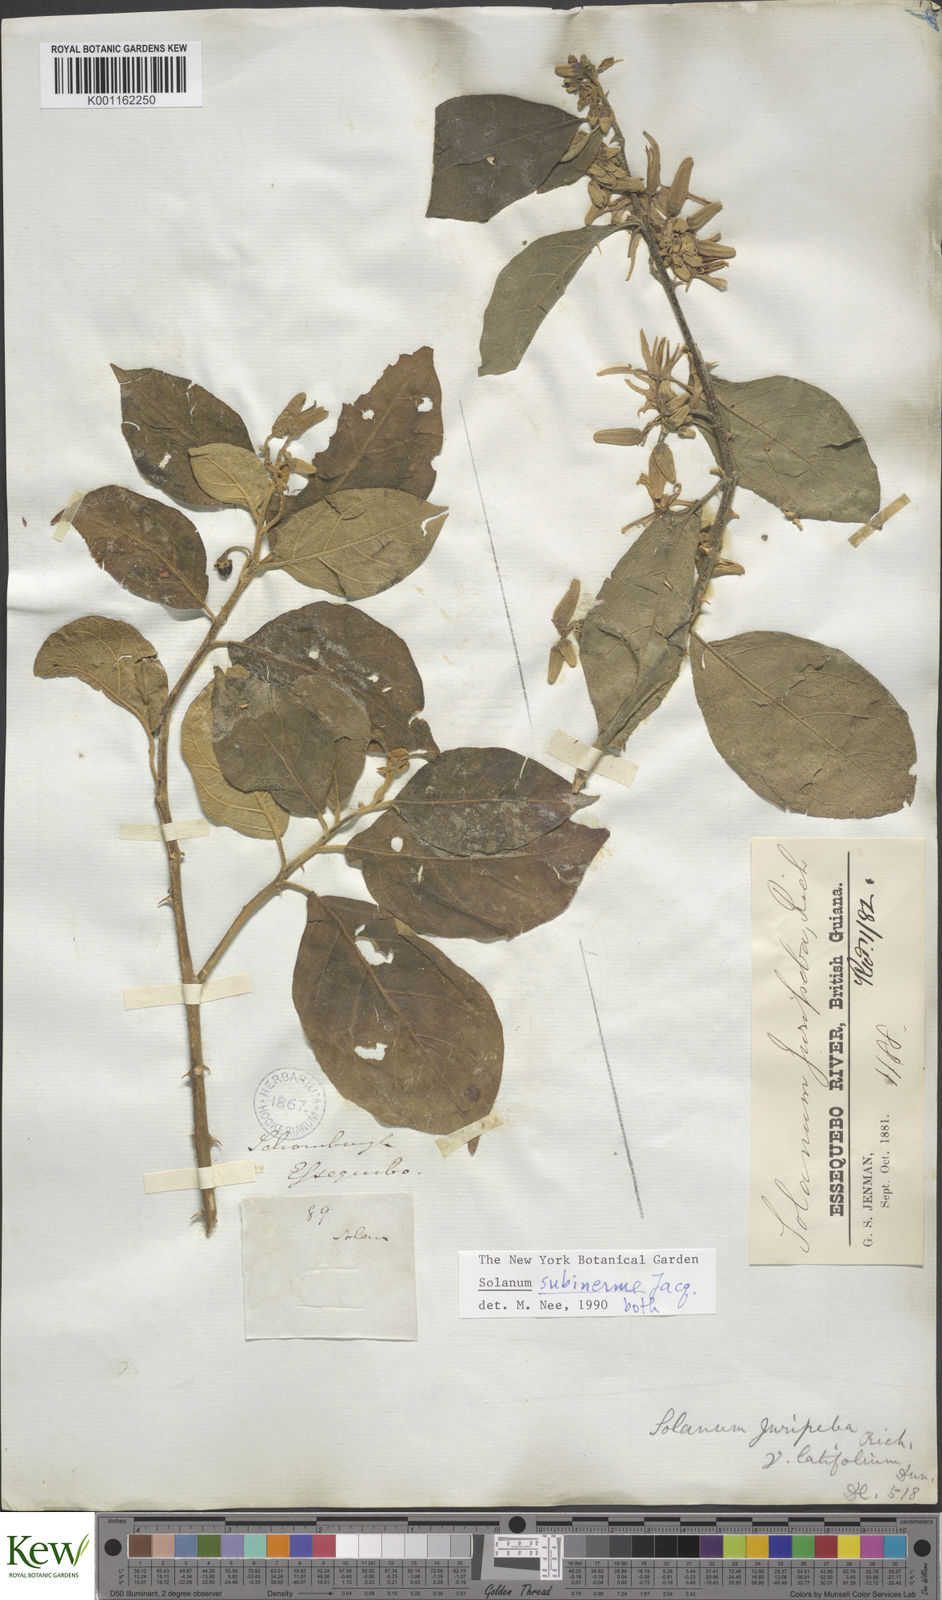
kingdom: Plantae
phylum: Tracheophyta
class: Magnoliopsida
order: Solanales
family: Solanaceae
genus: Solanum
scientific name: Solanum subinerme
